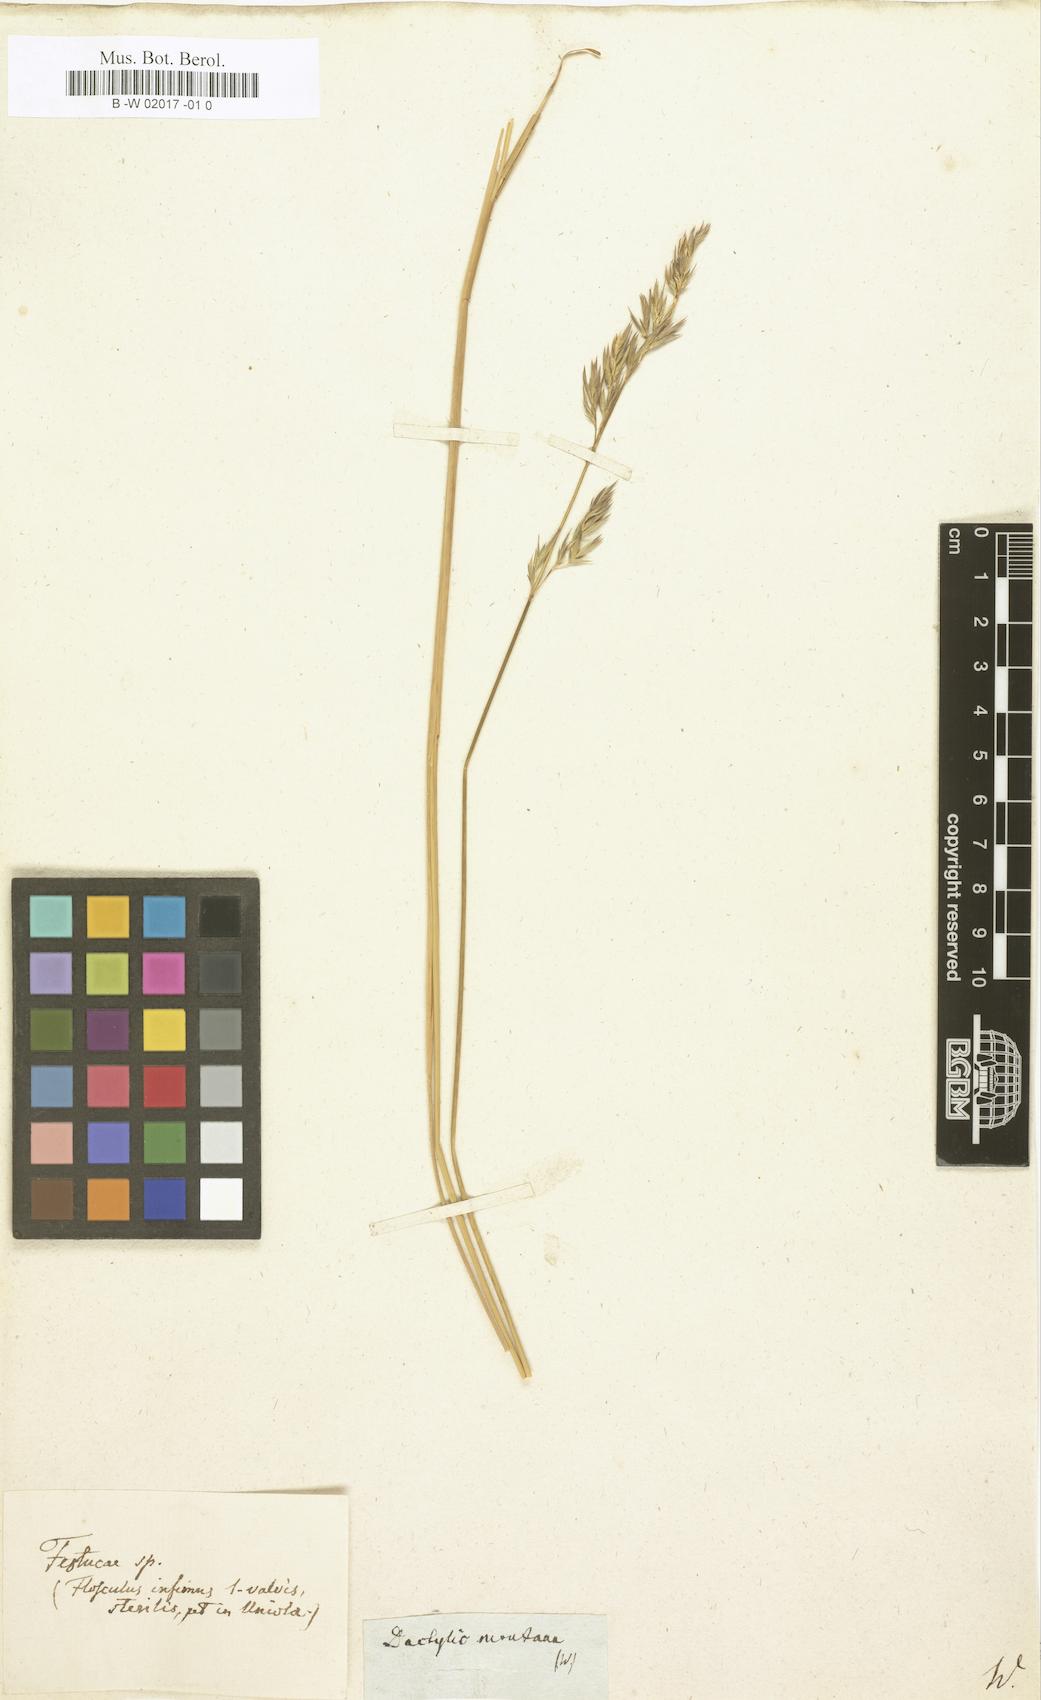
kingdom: Plantae
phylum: Tracheophyta
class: Liliopsida
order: Poales
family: Poaceae
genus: Dactylis
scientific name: Dactylis
